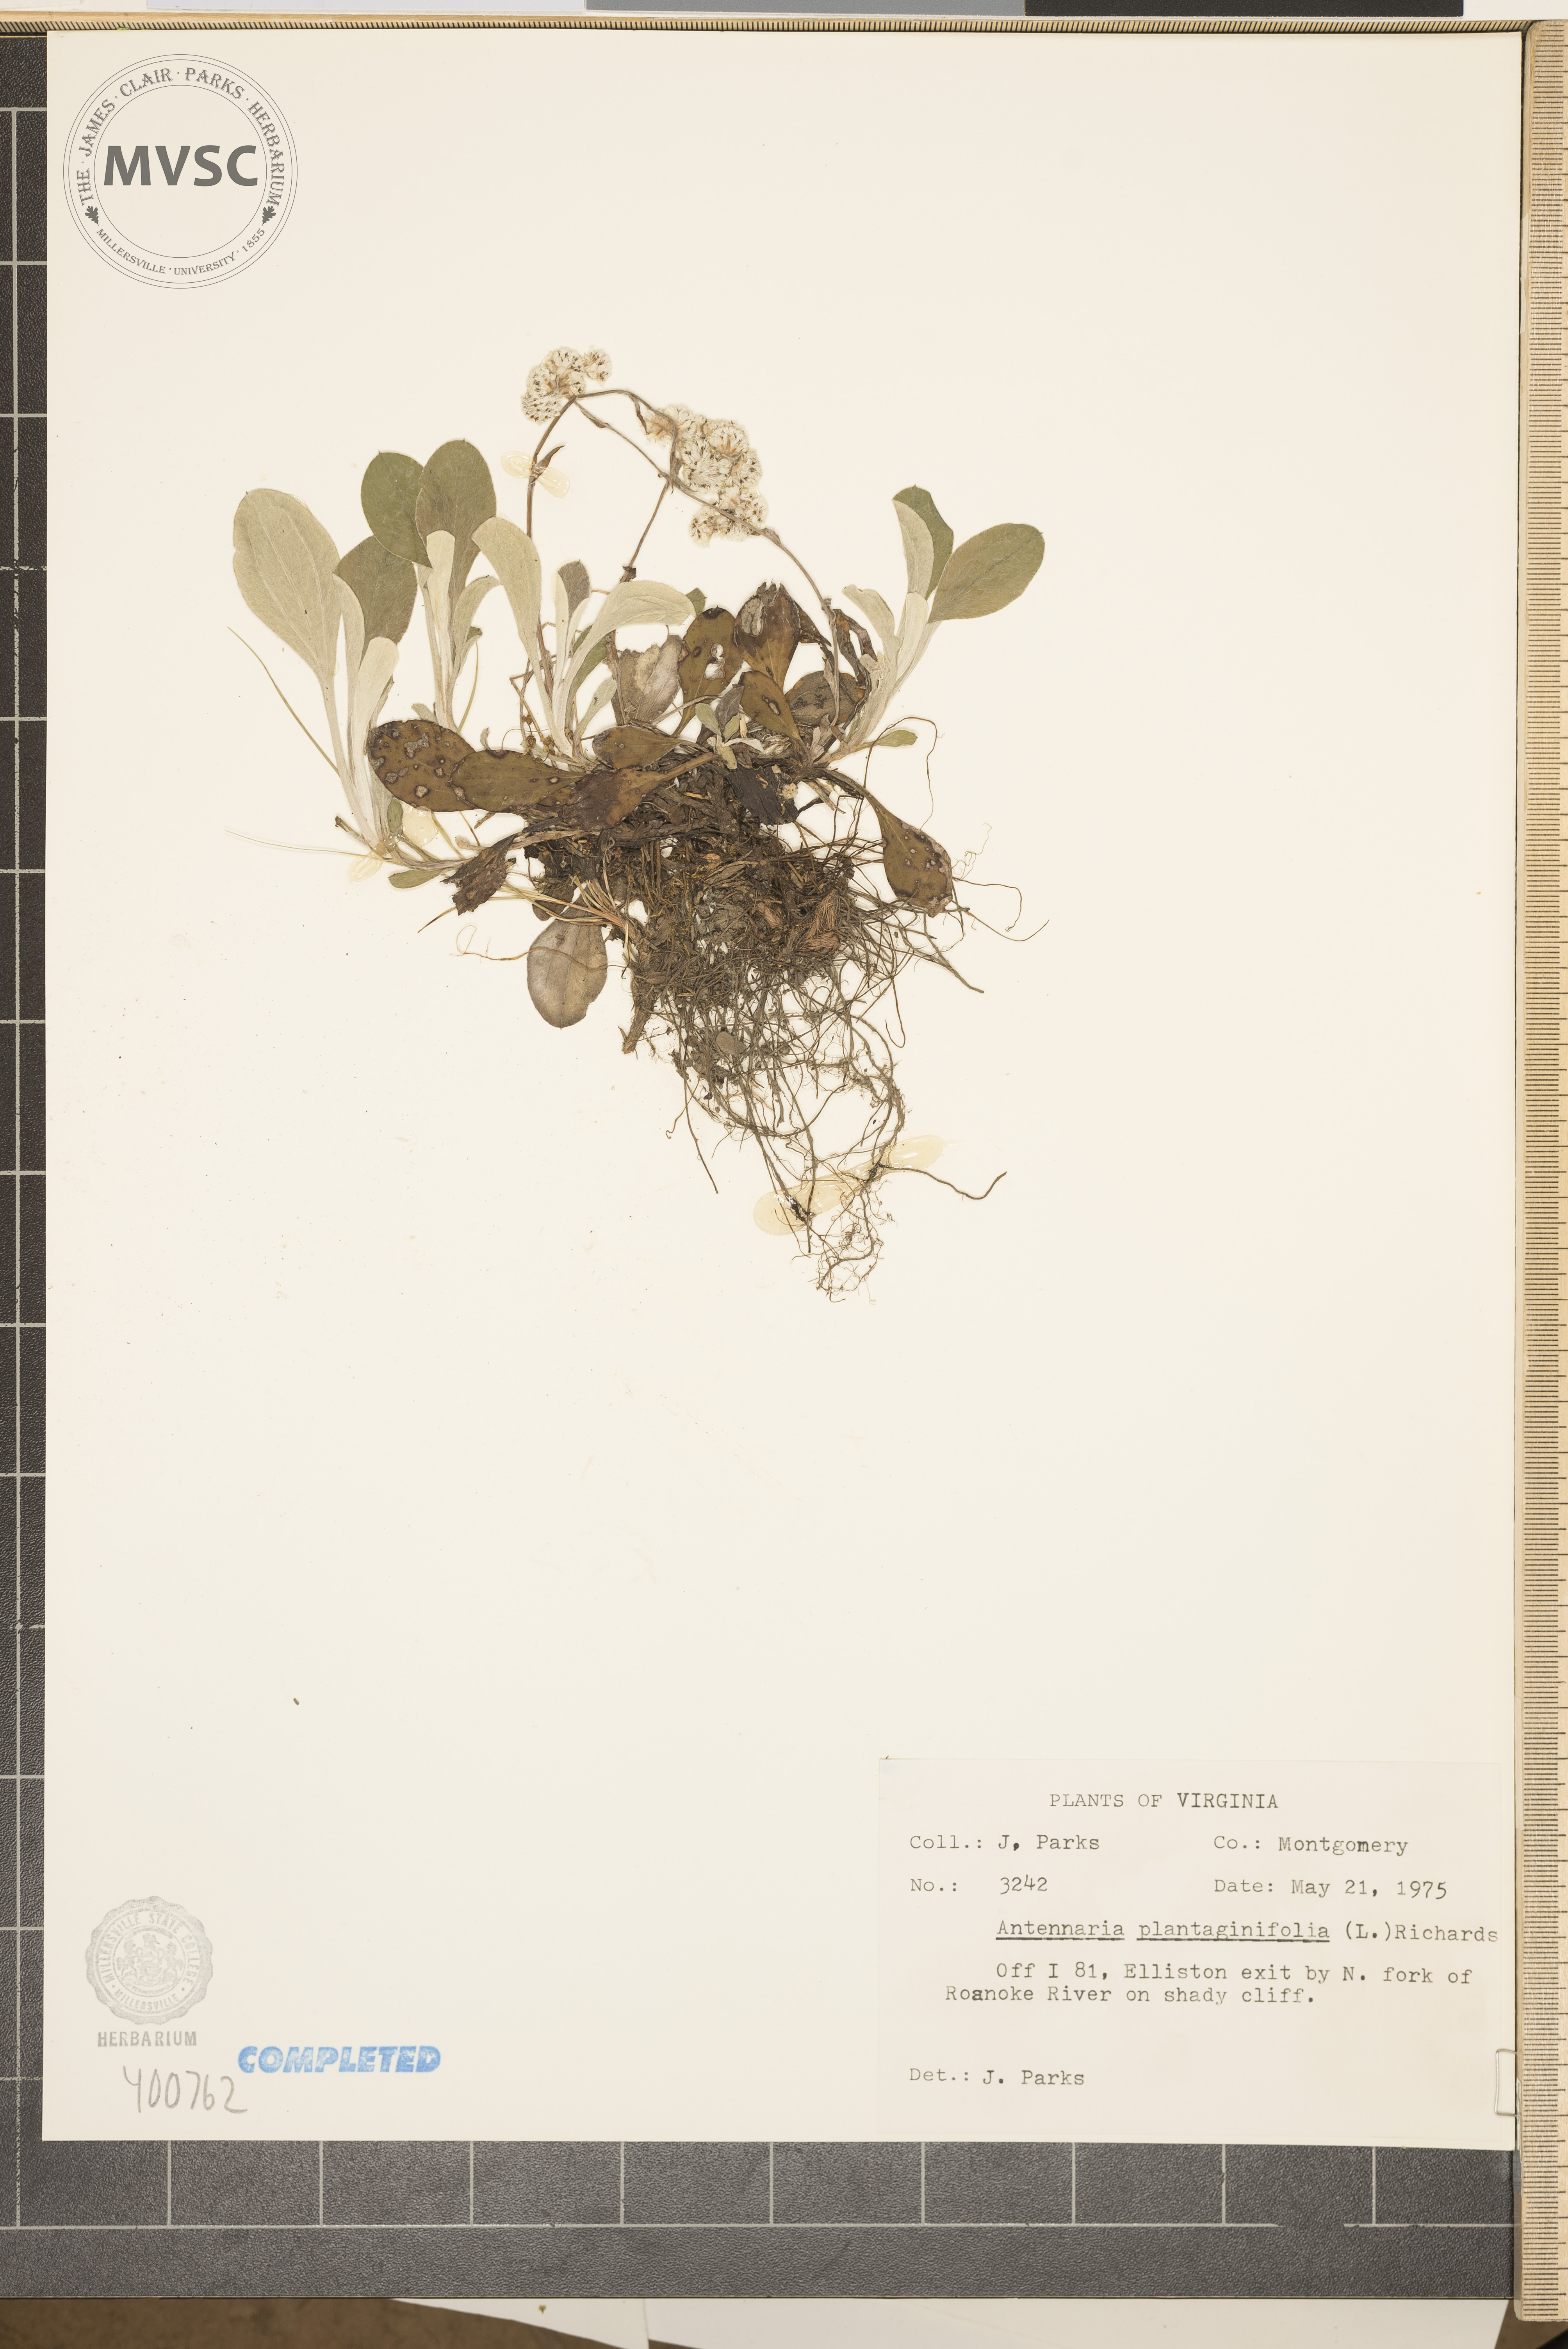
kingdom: Plantae
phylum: Tracheophyta
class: Magnoliopsida
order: Asterales
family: Asteraceae
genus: Antennaria
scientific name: Antennaria plantaginifolia
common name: pussyfoot
